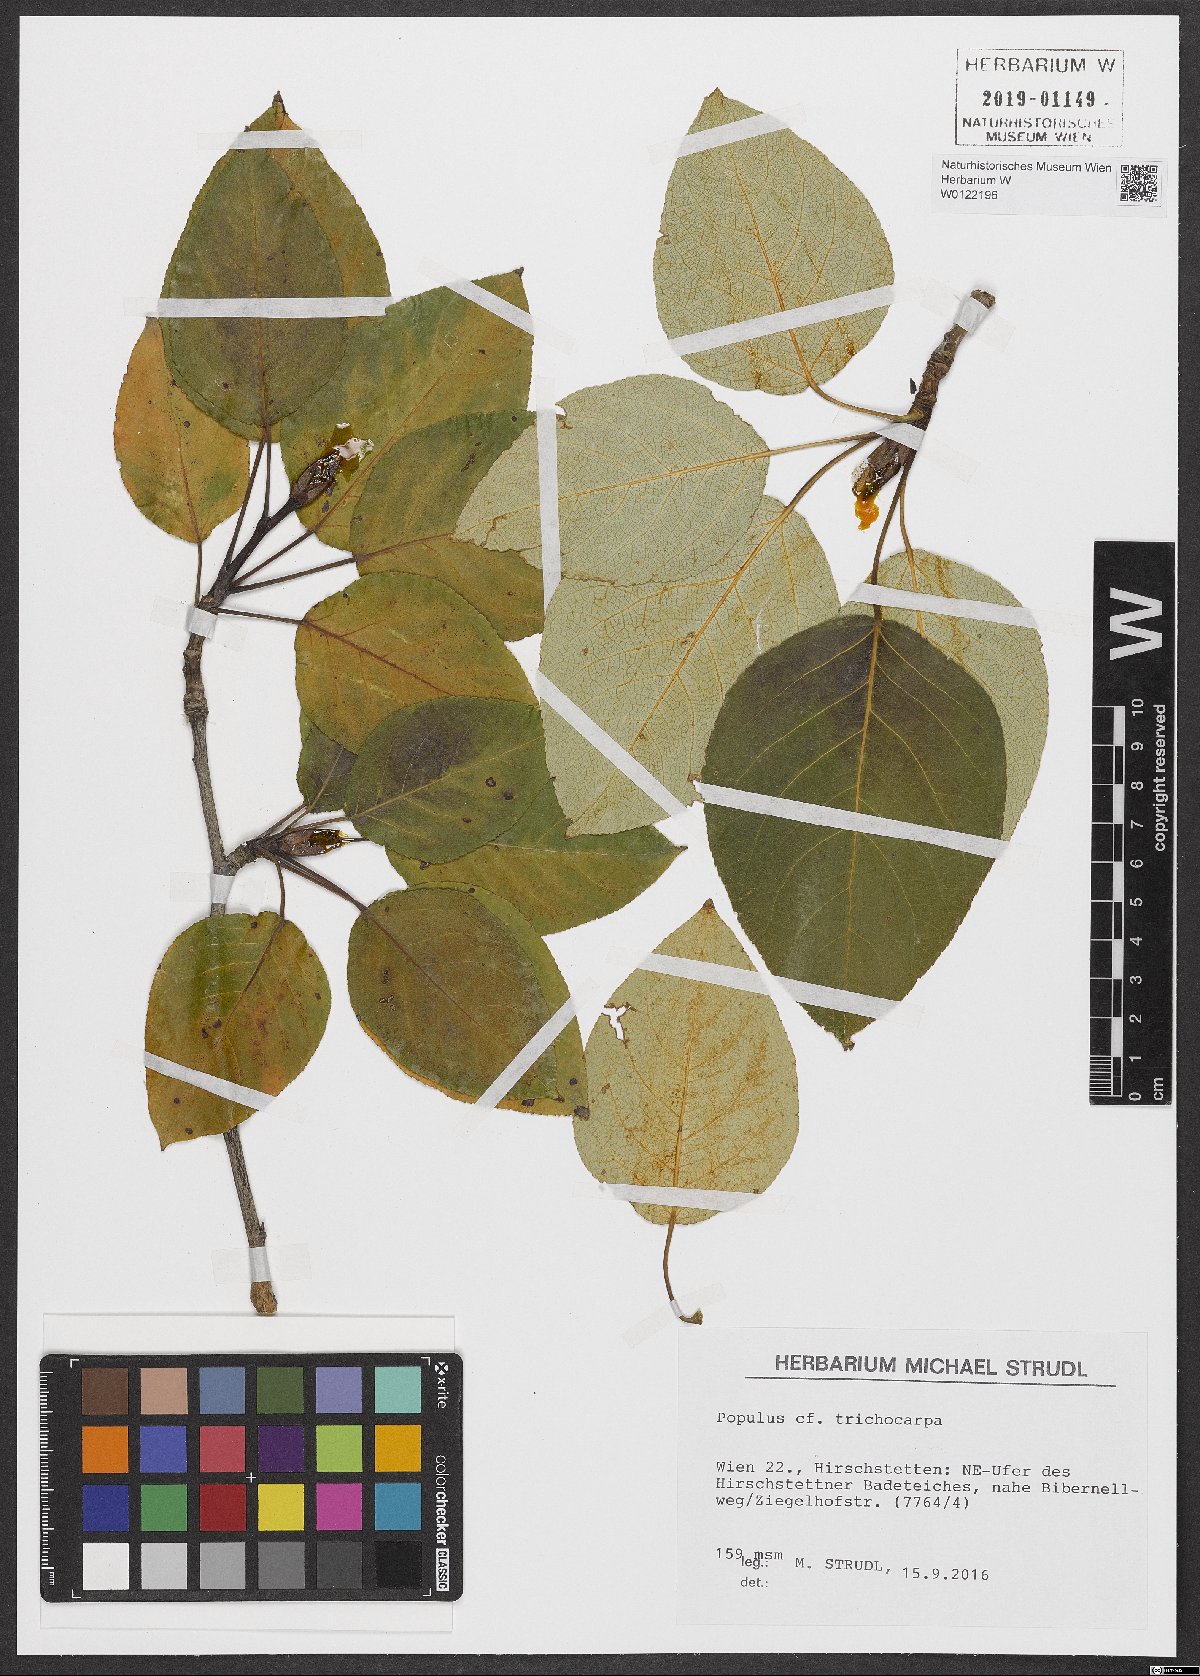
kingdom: Plantae
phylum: Tracheophyta
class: Magnoliopsida
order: Malpighiales
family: Salicaceae
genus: Populus
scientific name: Populus trichocarpa
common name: Black cottonwood
